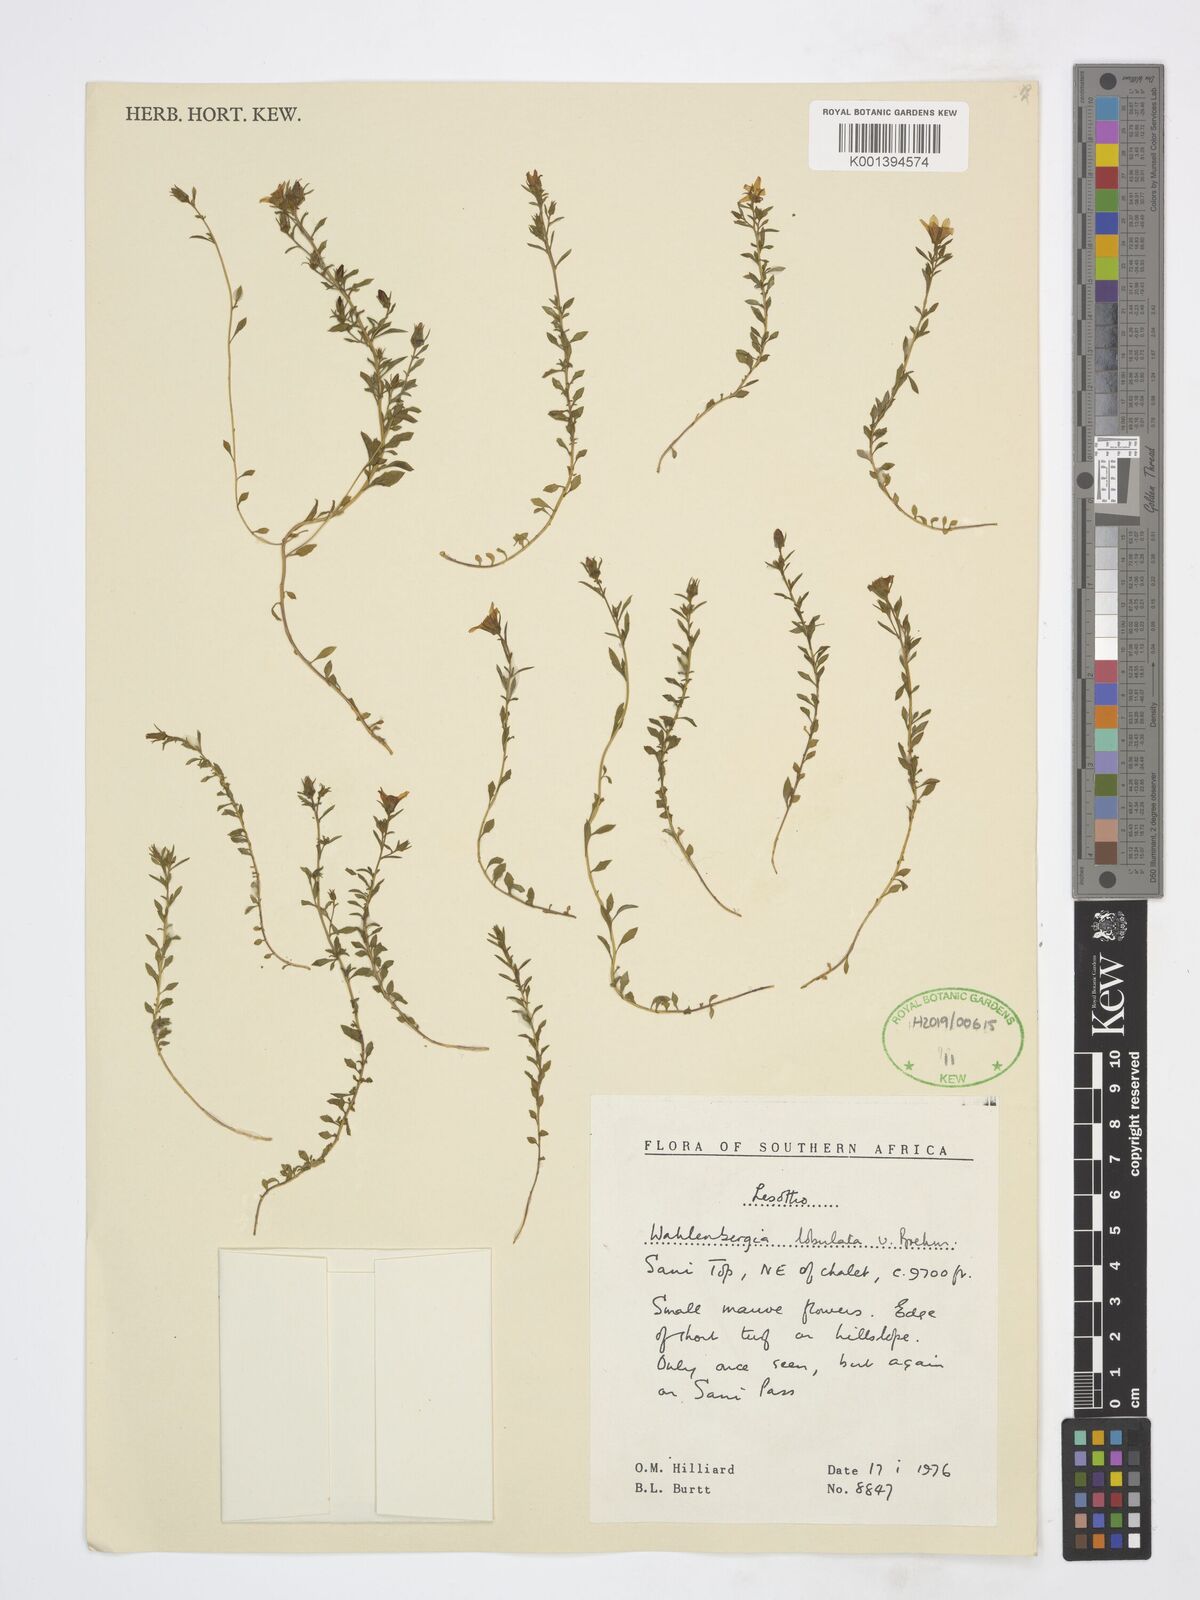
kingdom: Plantae
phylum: Tracheophyta
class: Magnoliopsida
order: Asterales
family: Campanulaceae
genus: Wahlenbergia
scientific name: Wahlenbergia lobulata
